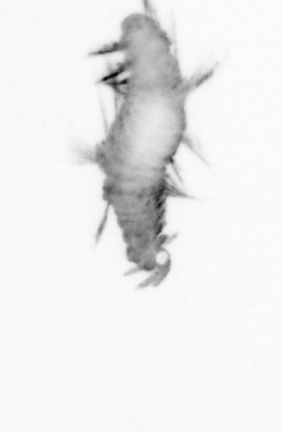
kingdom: Animalia
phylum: Annelida
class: Polychaeta
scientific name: Polychaeta
